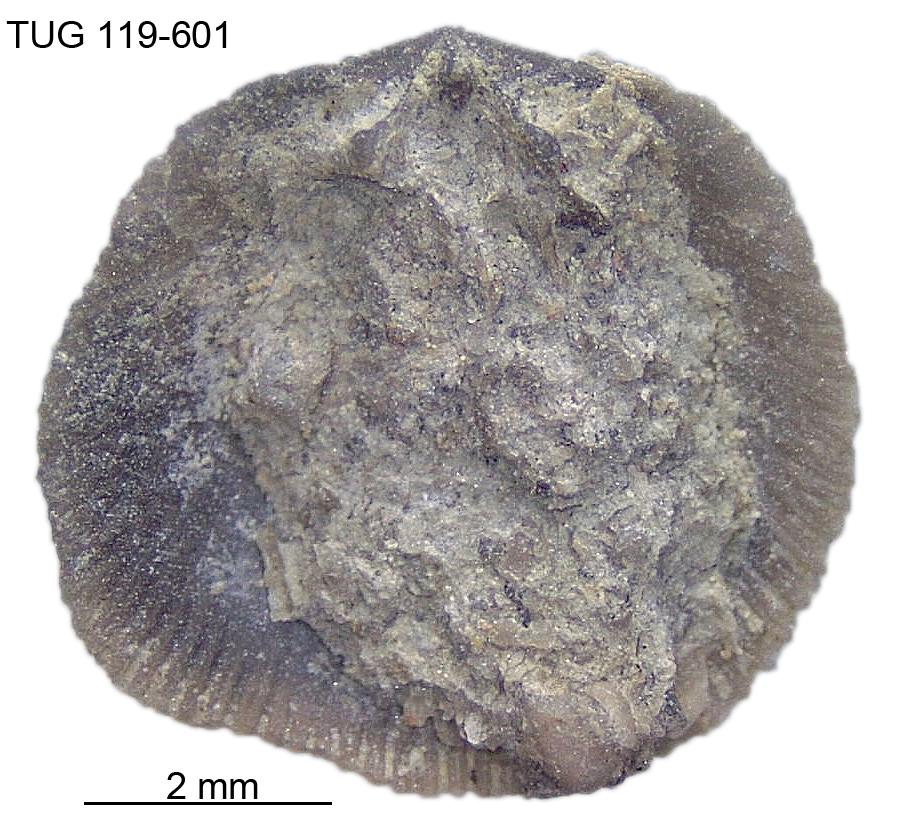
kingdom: Animalia
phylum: Brachiopoda
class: Rhynchonellata
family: Rhipidomellidae
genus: Mendacella
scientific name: Mendacella Orthis hybrida
